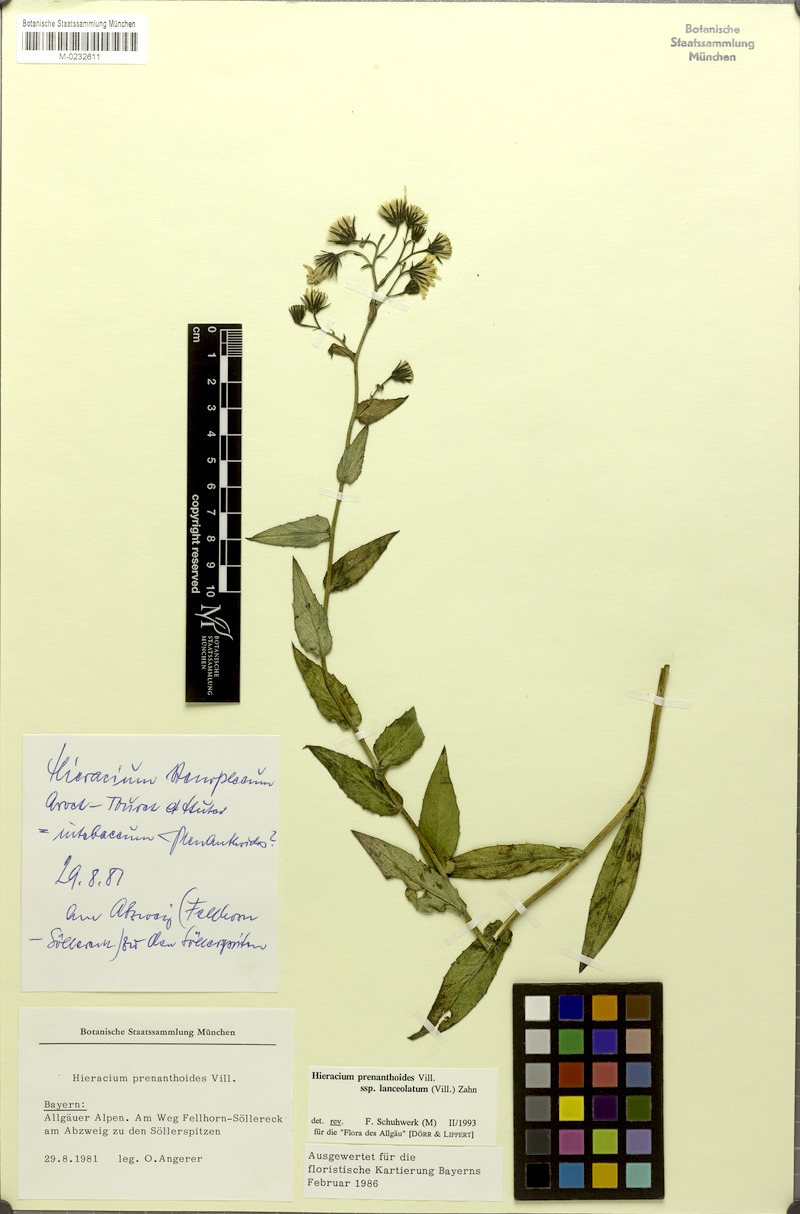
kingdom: Plantae
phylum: Tracheophyta
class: Magnoliopsida
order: Asterales
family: Asteraceae
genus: Hieracium
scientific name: Hieracium prenanthoides
